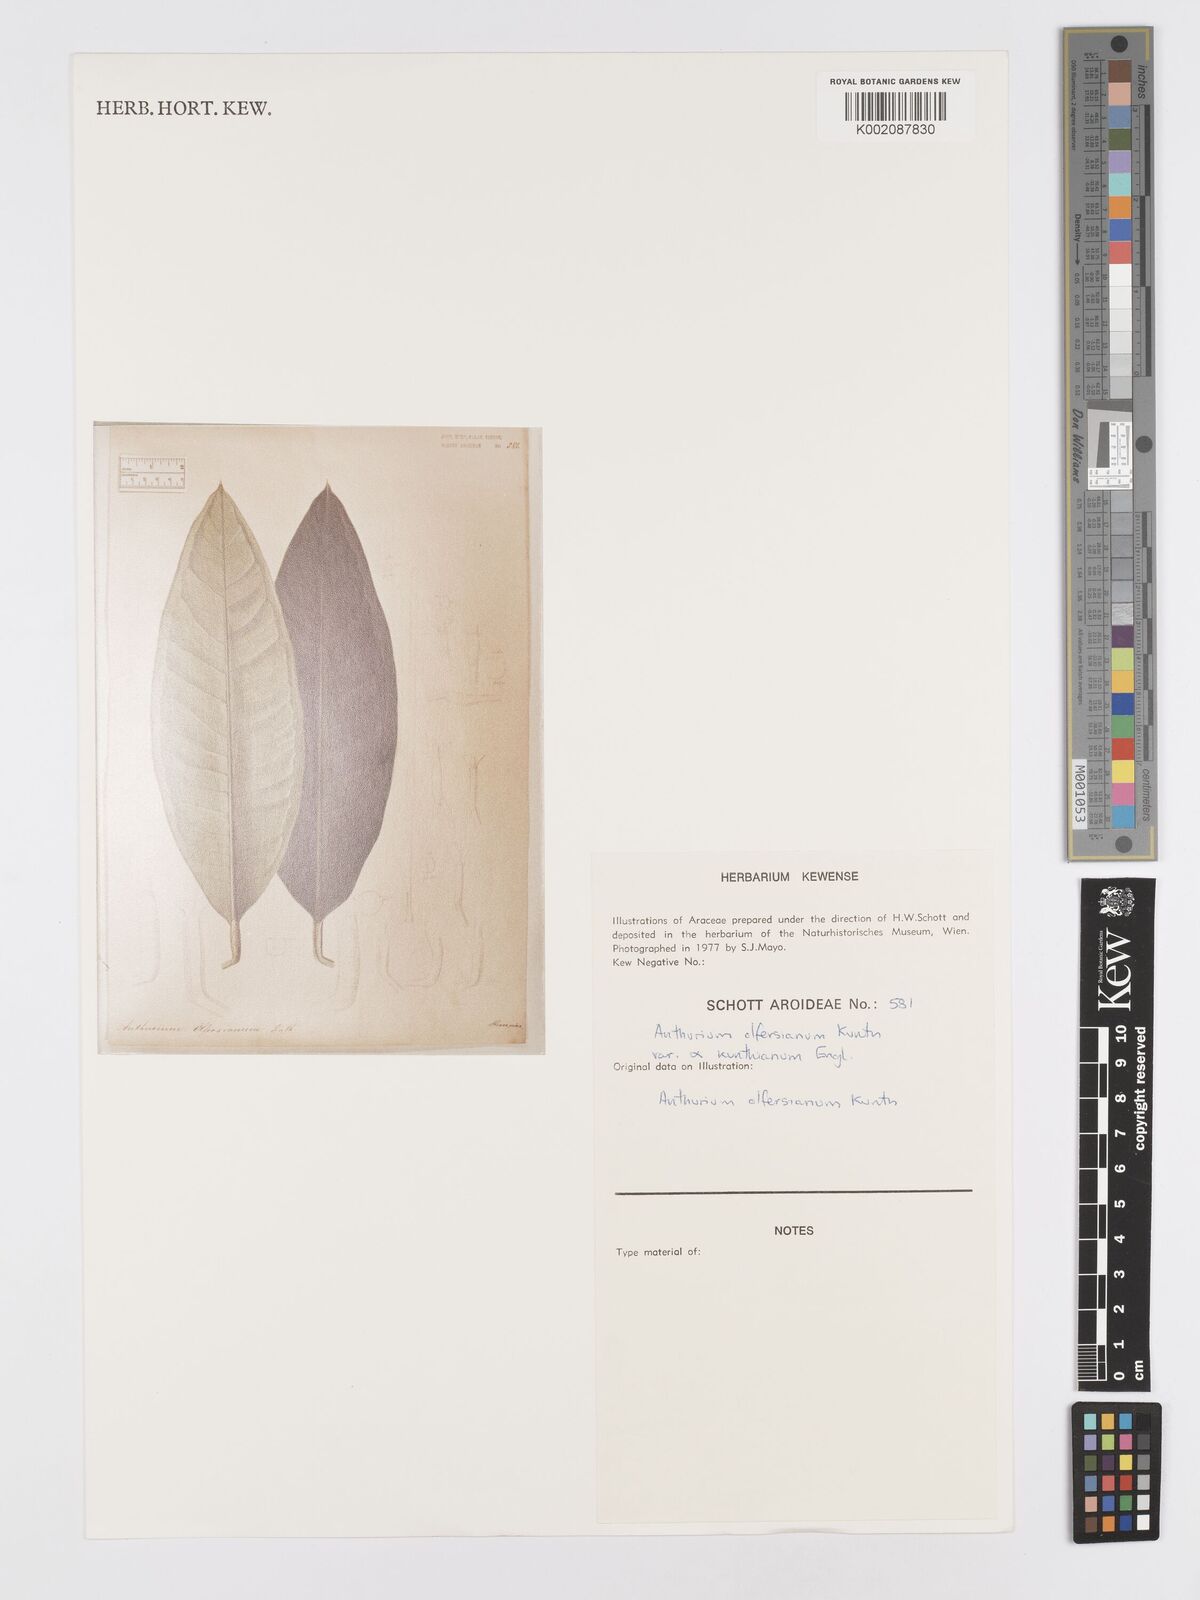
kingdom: Plantae
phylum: Tracheophyta
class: Liliopsida
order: Alismatales
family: Araceae
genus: Anthurium
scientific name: Anthurium parasiticum
